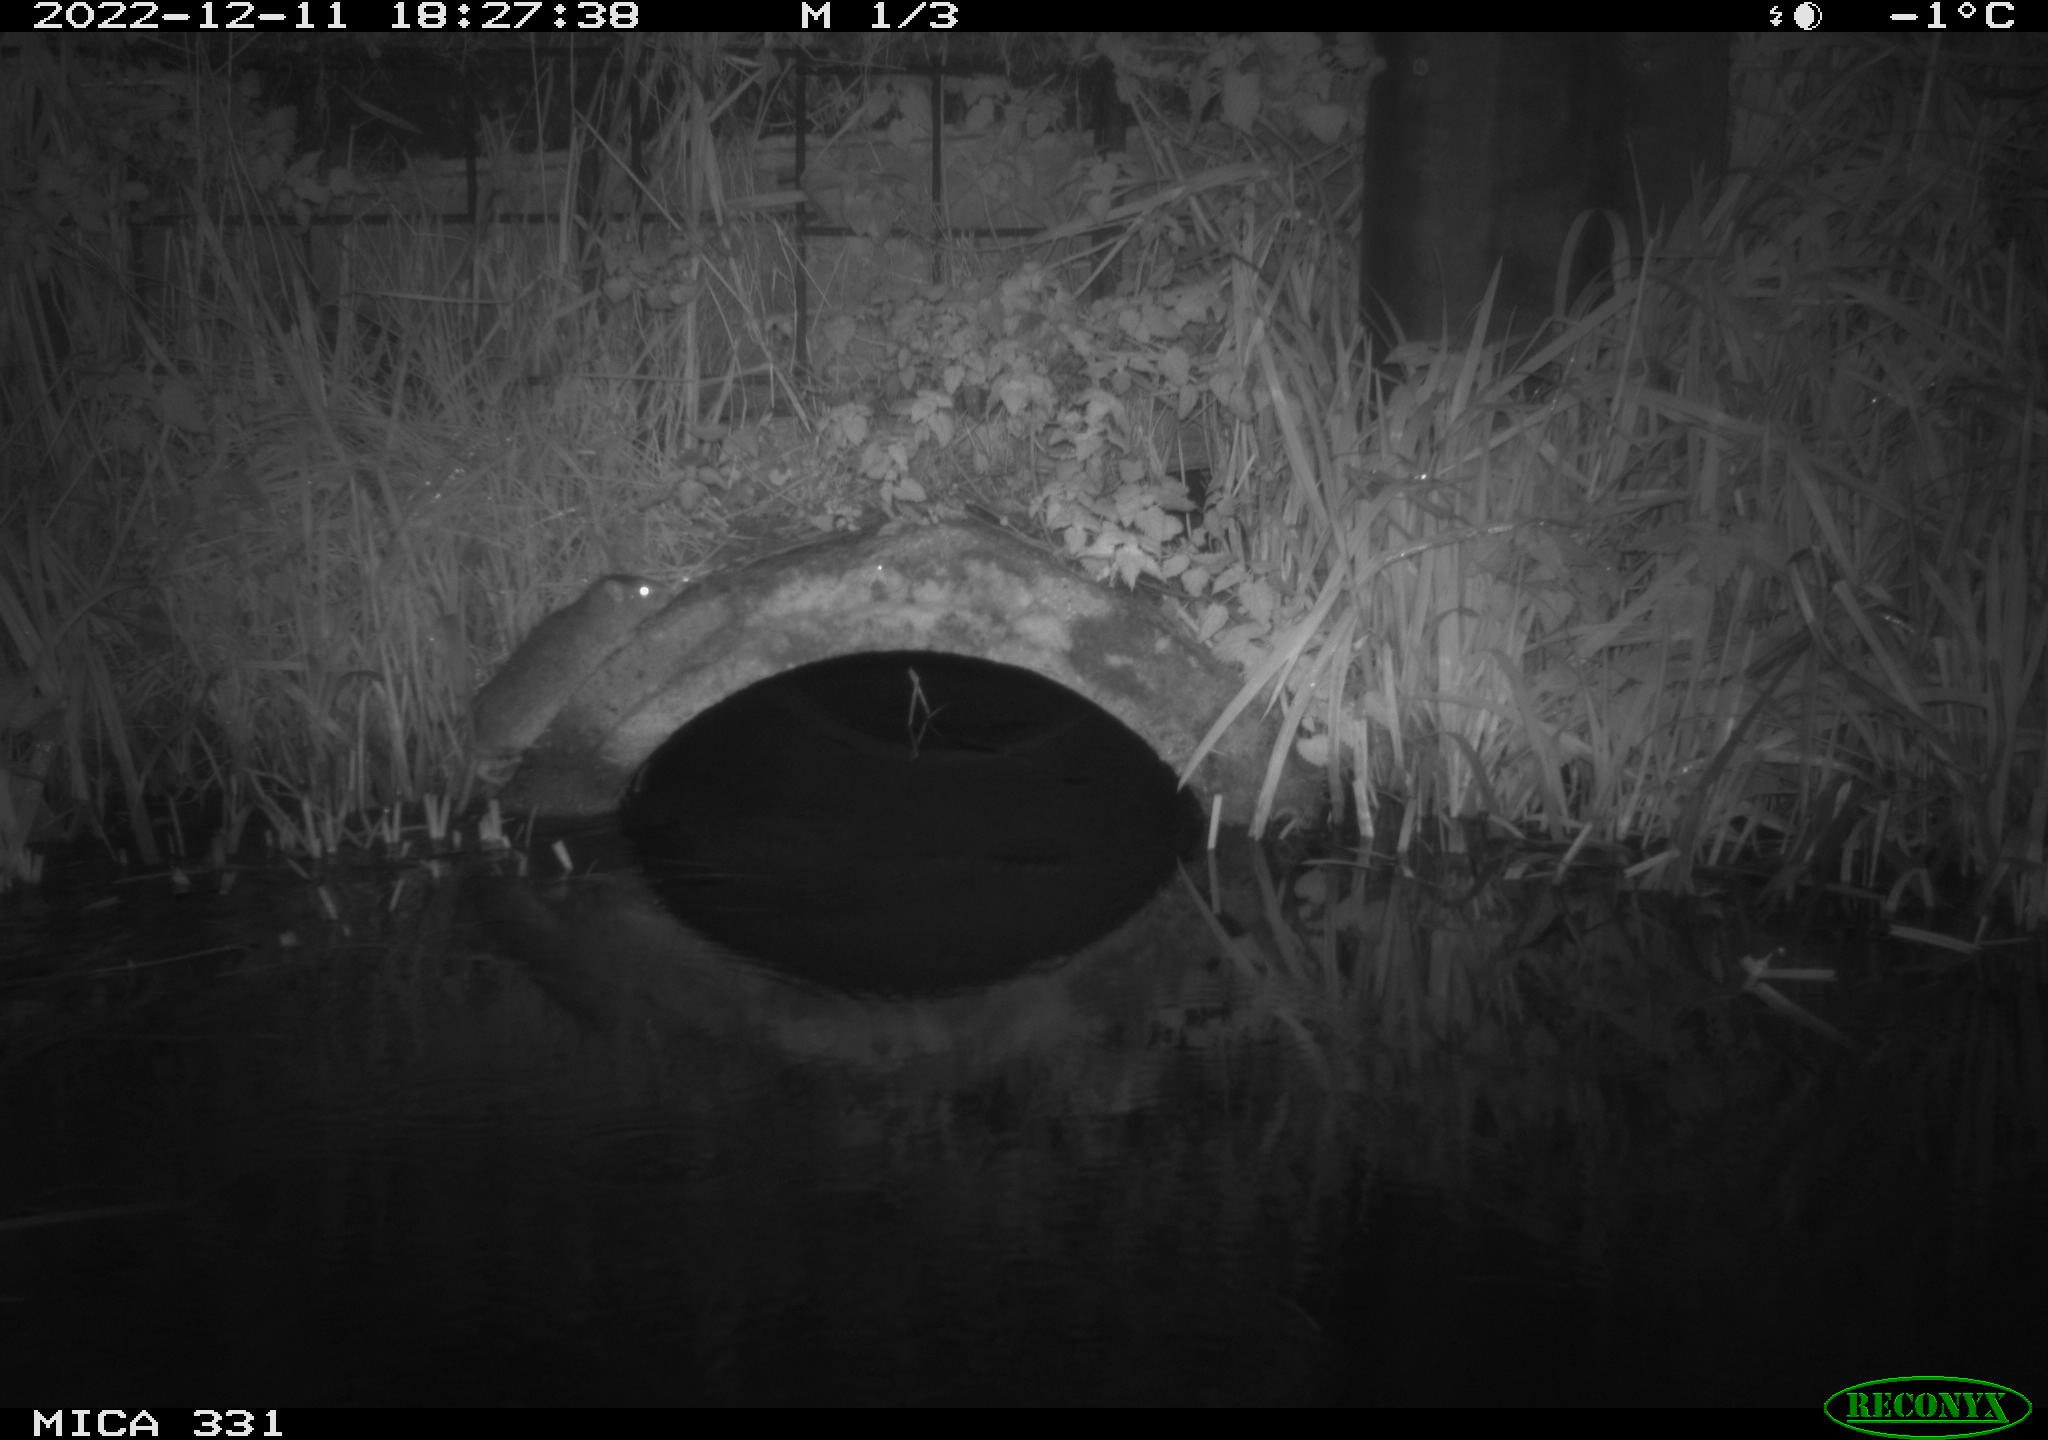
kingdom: Animalia
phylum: Chordata
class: Mammalia
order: Rodentia
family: Muridae
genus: Rattus
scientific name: Rattus norvegicus
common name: Brown rat
